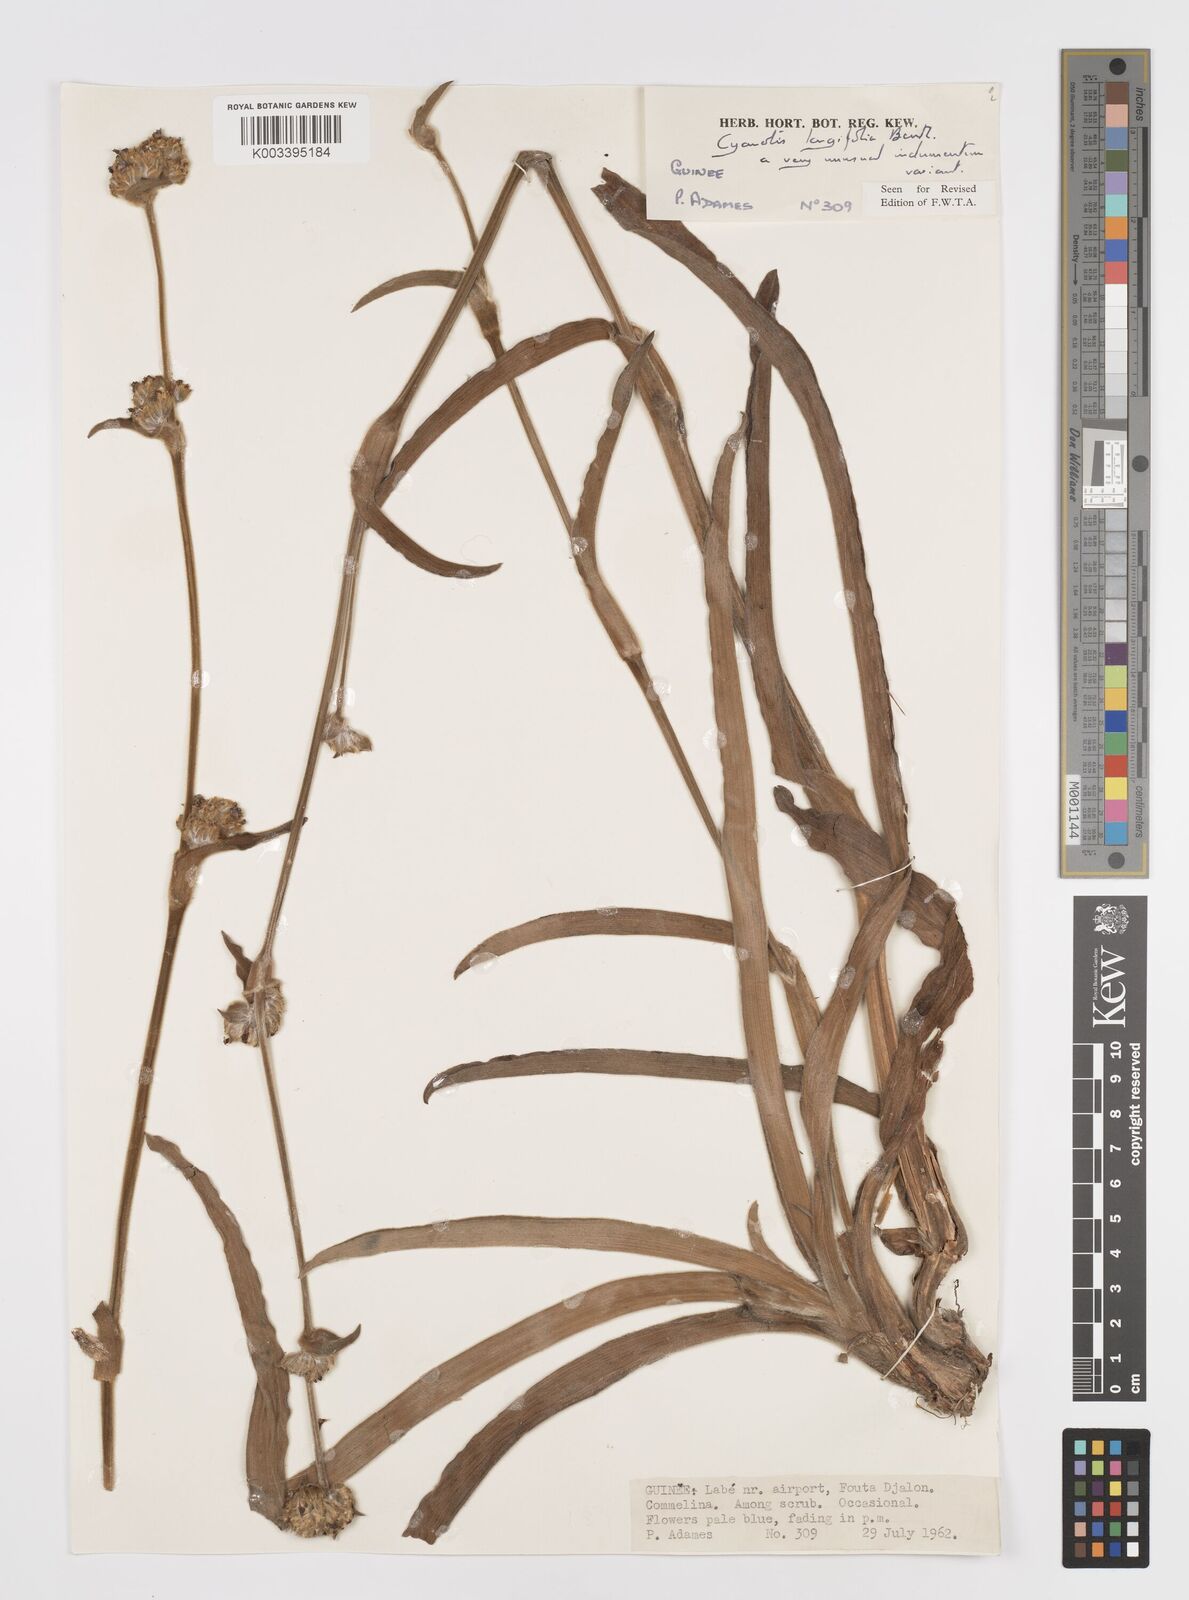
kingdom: Plantae
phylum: Tracheophyta
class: Liliopsida
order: Commelinales
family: Commelinaceae
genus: Cyanotis
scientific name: Cyanotis
